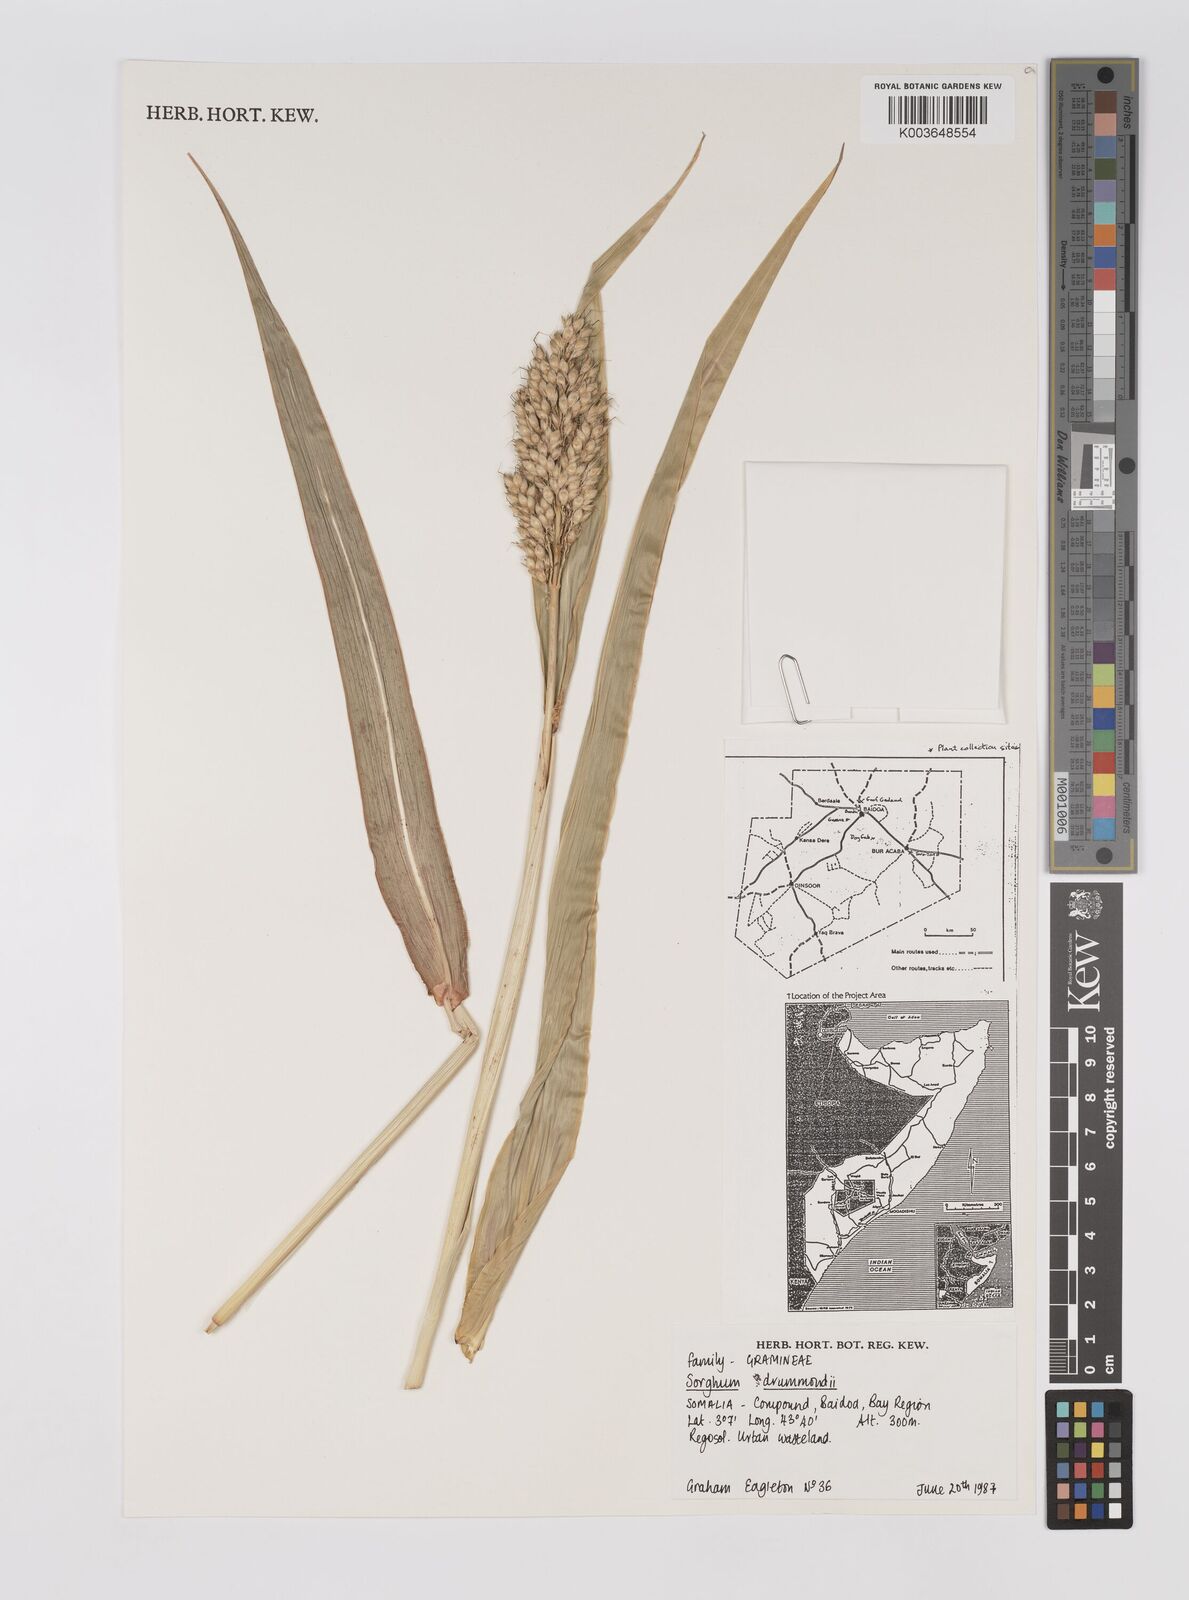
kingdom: Plantae
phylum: Tracheophyta
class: Liliopsida
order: Poales
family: Poaceae
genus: Sorghum
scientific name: Sorghum drummondii
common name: Sudangrass
